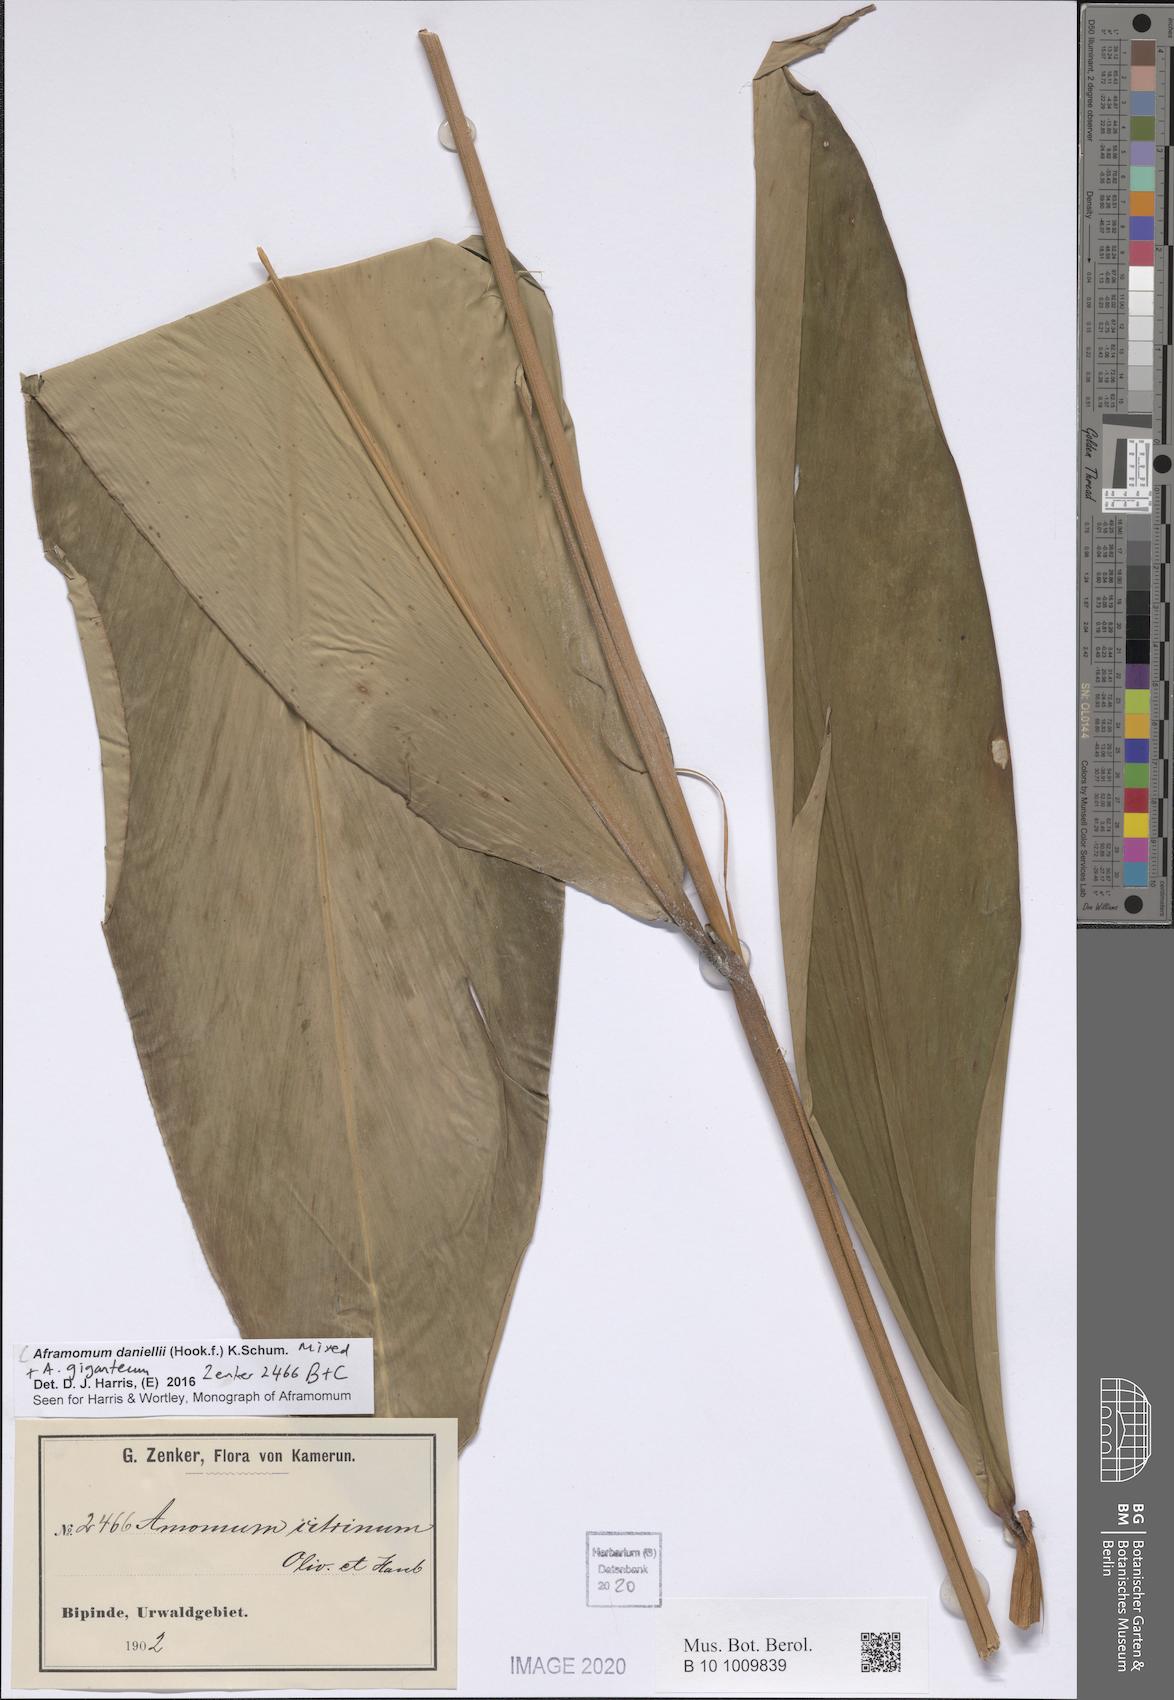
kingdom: Plantae
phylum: Tracheophyta
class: Liliopsida
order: Zingiberales
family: Zingiberaceae
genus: Aframomum
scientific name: Aframomum daniellii
